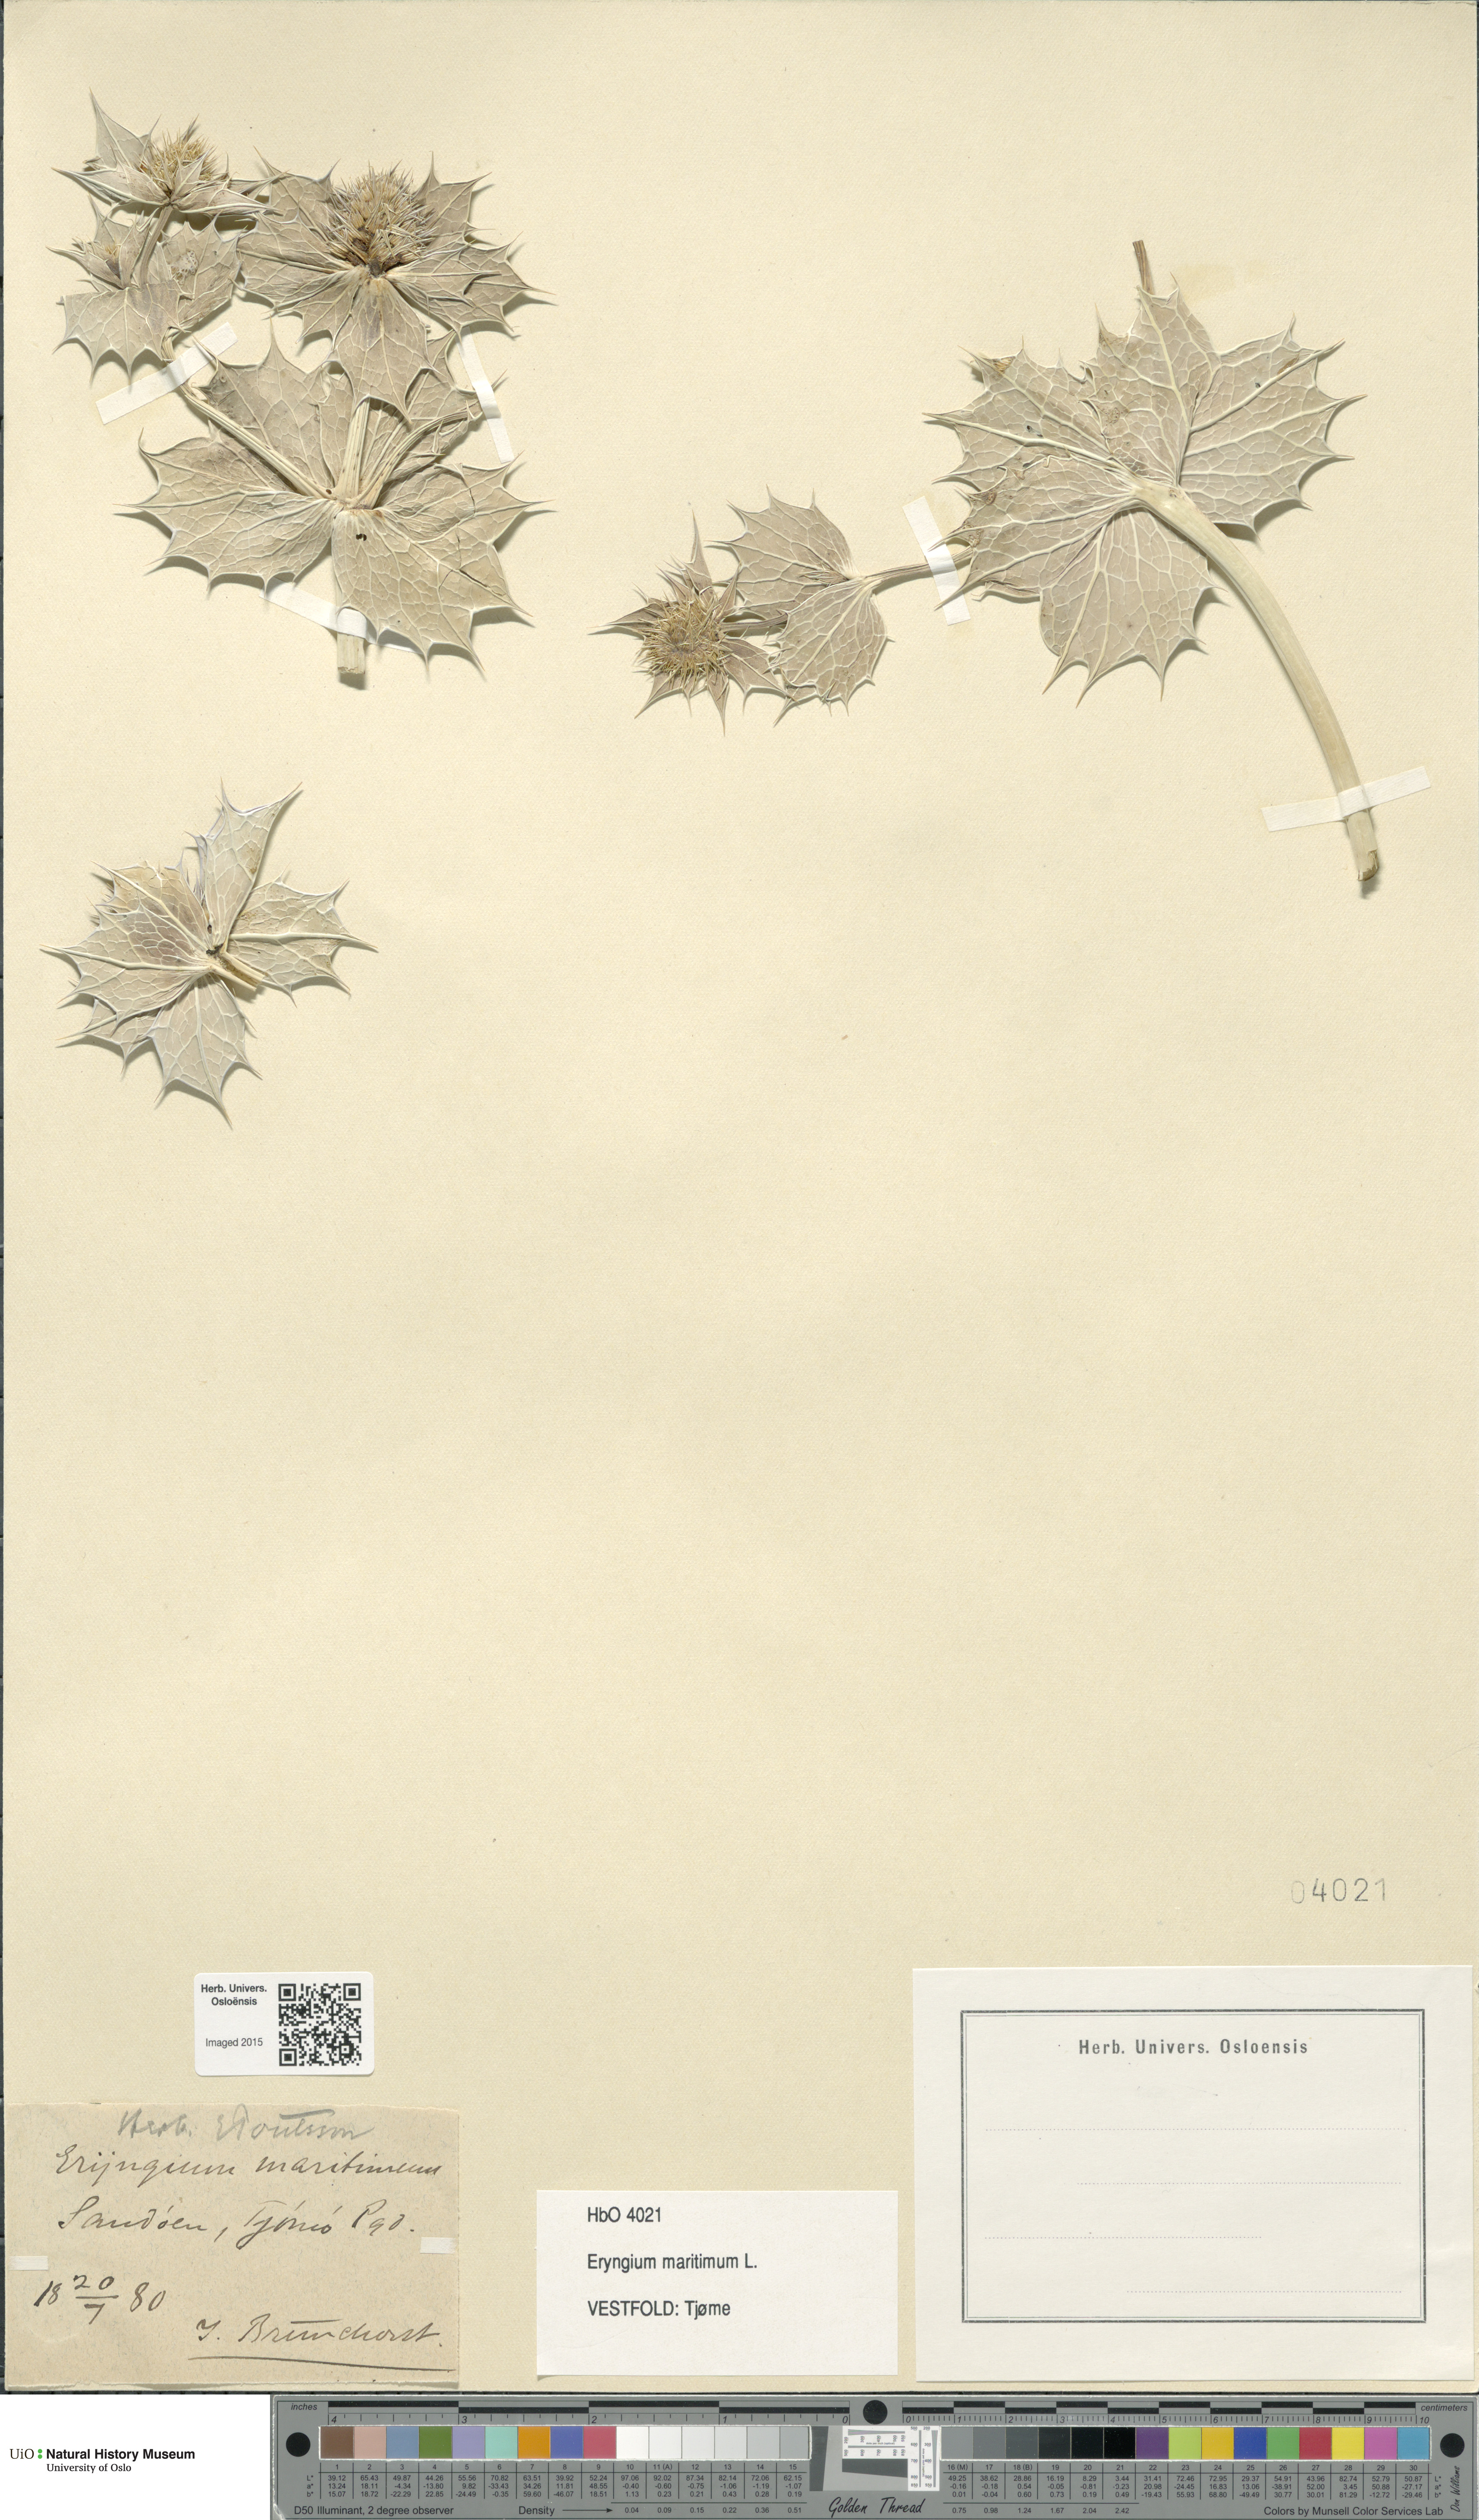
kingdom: Plantae
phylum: Tracheophyta
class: Magnoliopsida
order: Apiales
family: Apiaceae
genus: Eryngium
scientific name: Eryngium maritimum
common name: Sea-holly
